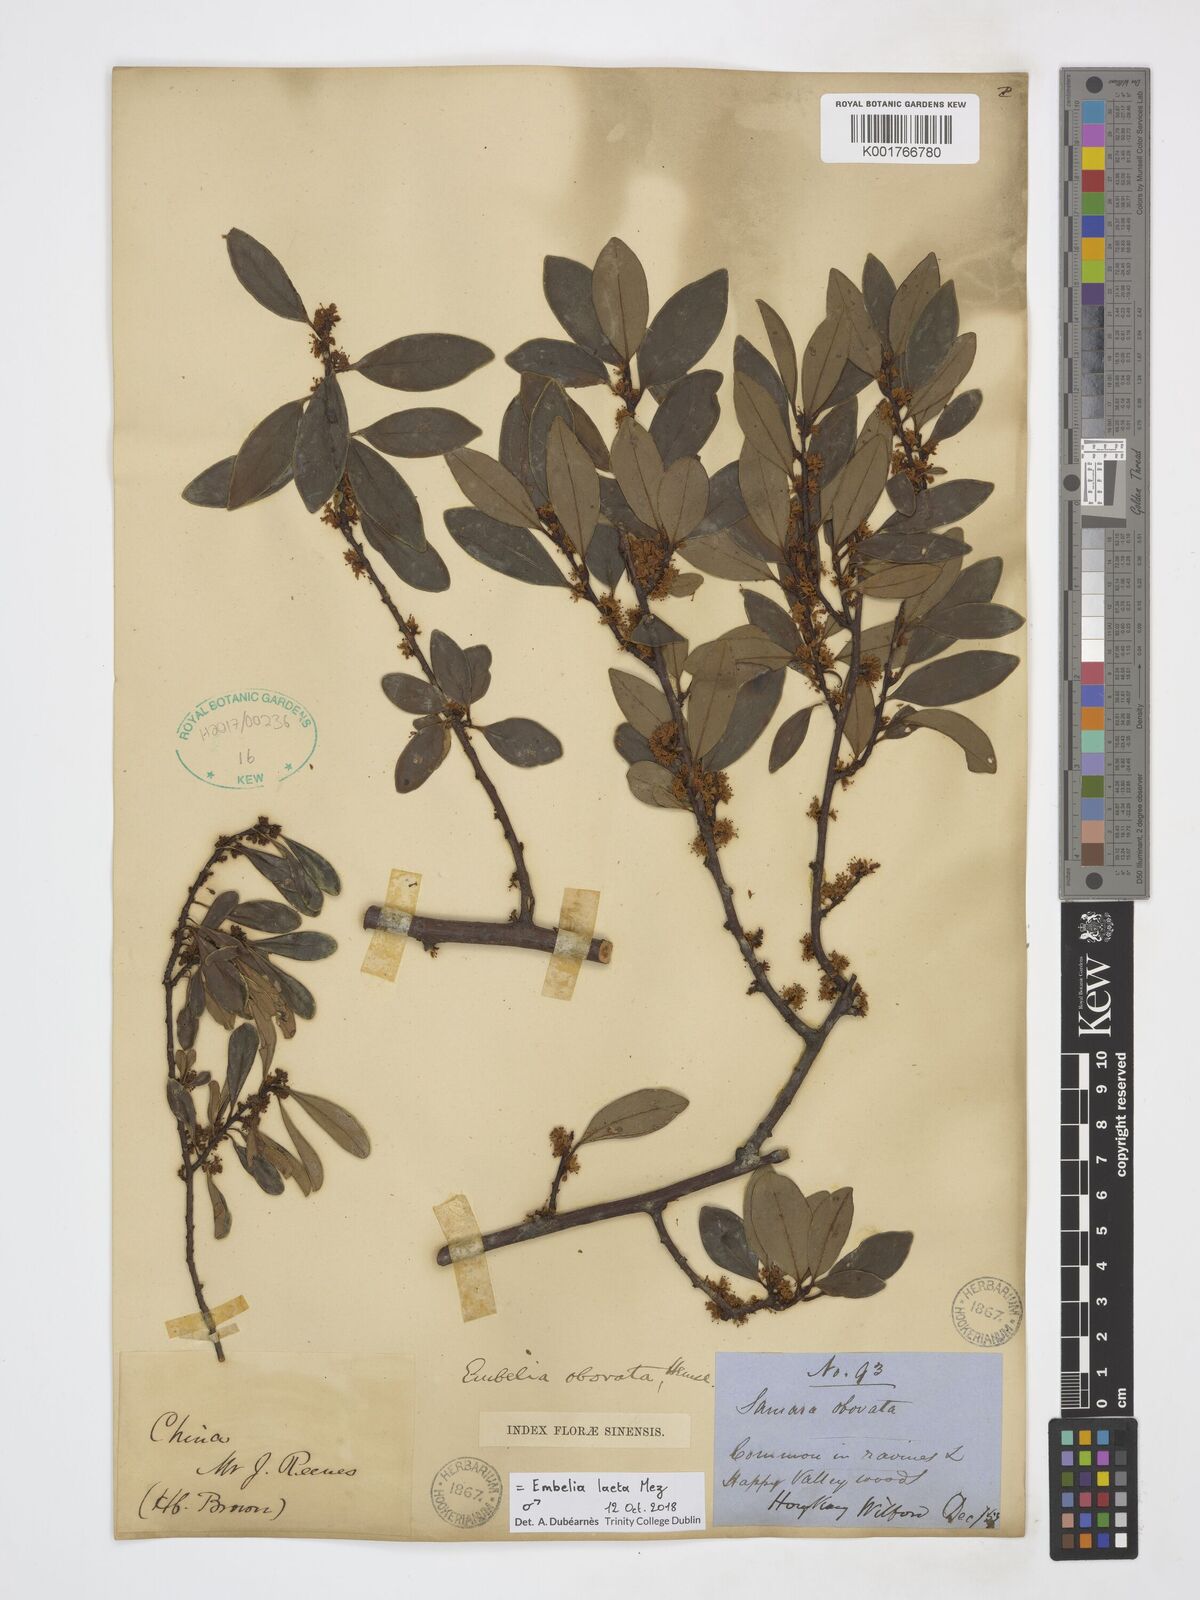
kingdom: Plantae
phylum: Tracheophyta
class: Magnoliopsida
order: Ericales
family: Primulaceae
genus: Embelia
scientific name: Embelia laeta
